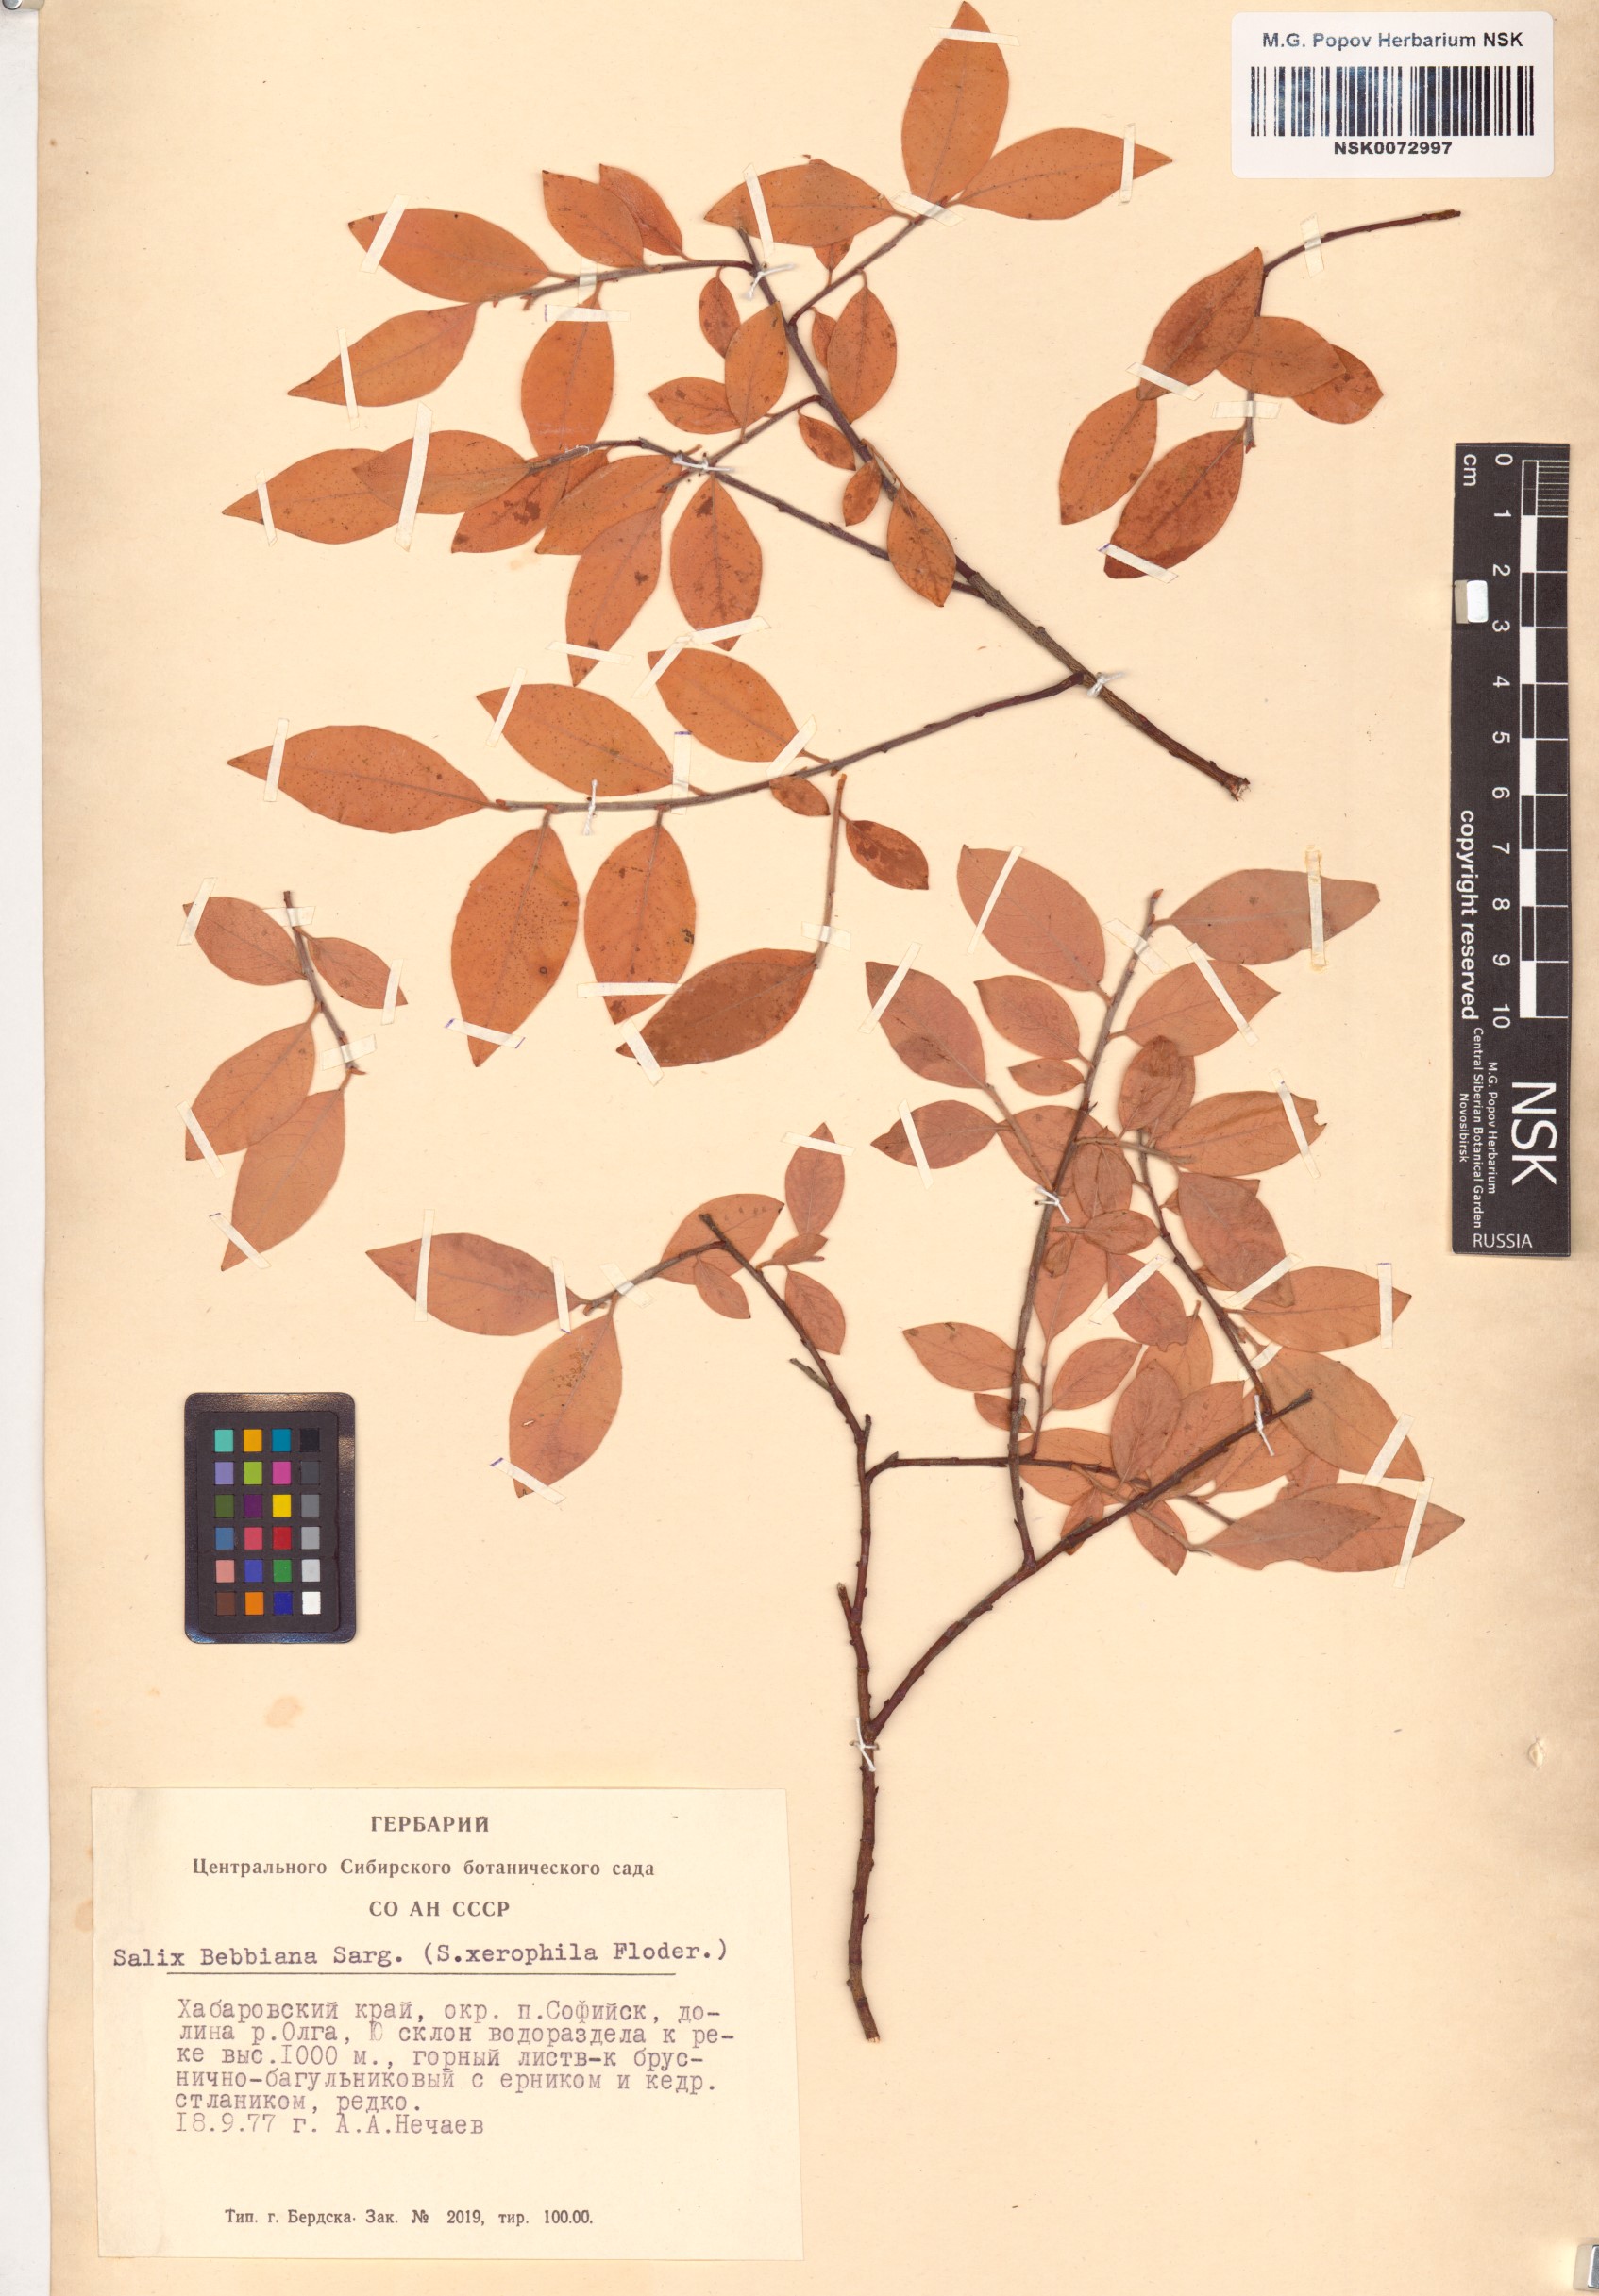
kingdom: Plantae
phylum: Tracheophyta
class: Magnoliopsida
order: Malpighiales
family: Salicaceae
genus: Salix
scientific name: Salix bebbiana
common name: Bebb's willow
